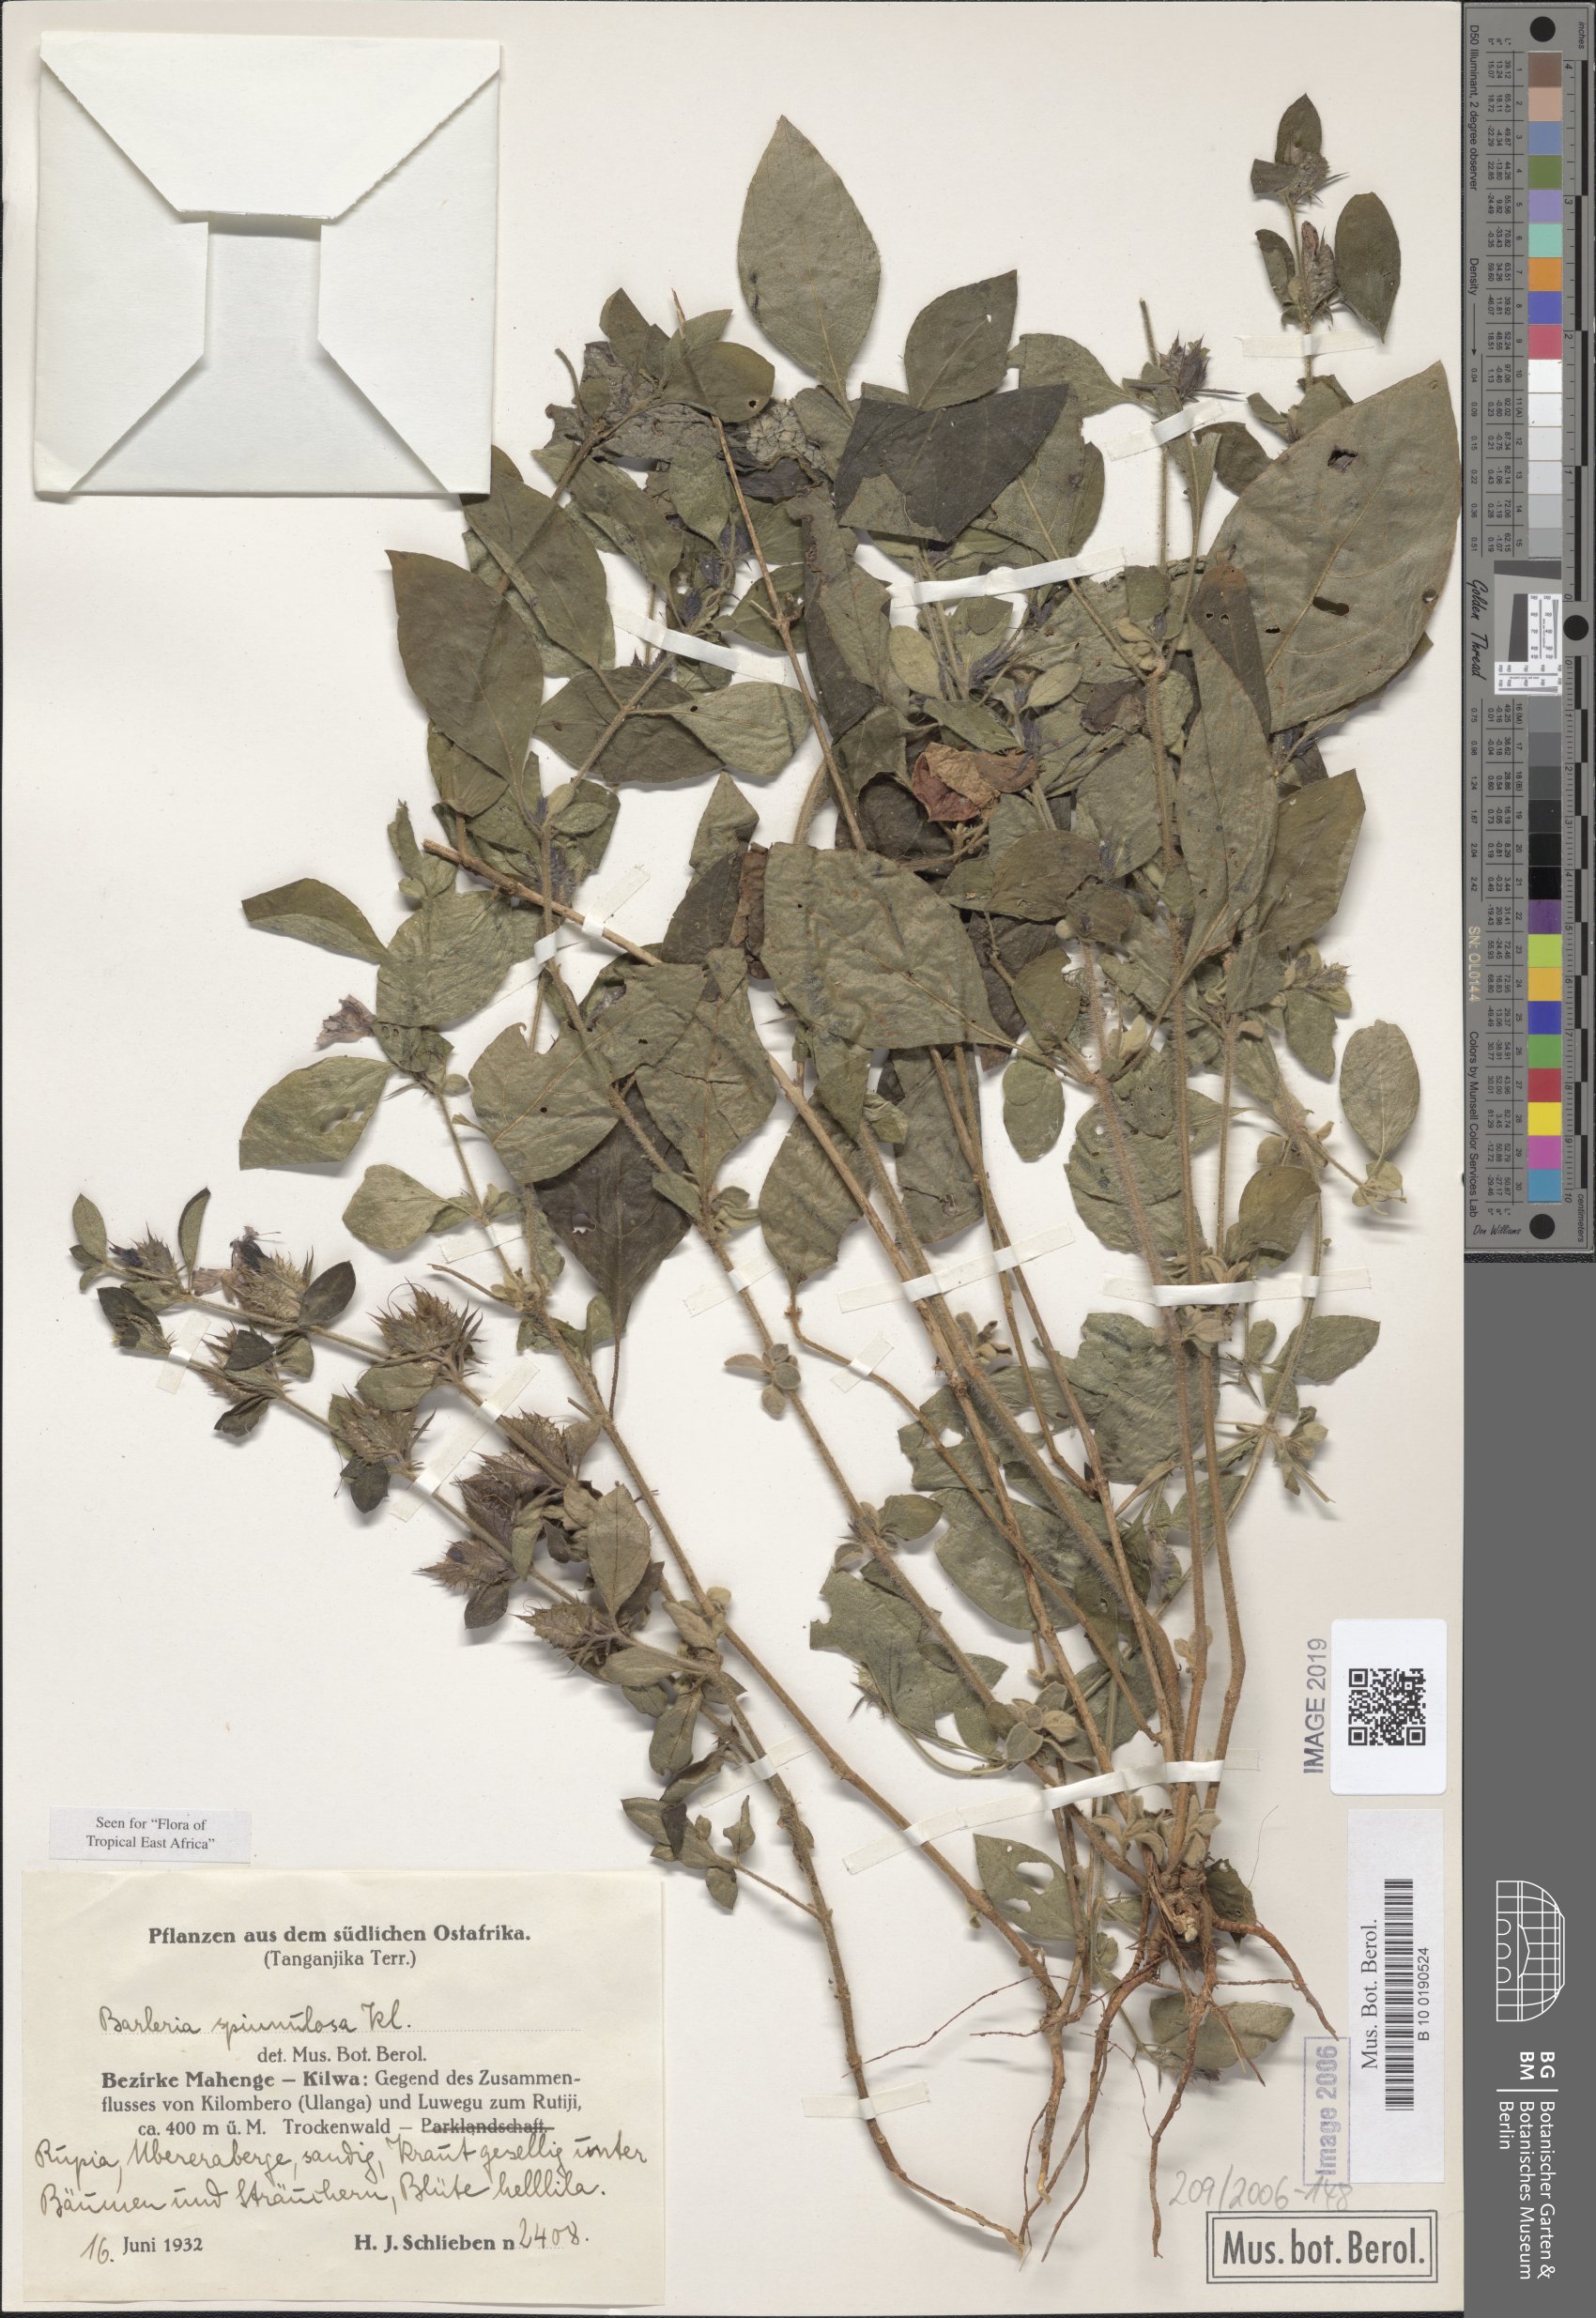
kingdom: Plantae
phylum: Tracheophyta
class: Magnoliopsida
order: Lamiales
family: Acanthaceae
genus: Barleria
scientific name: Barleria spinulosa
